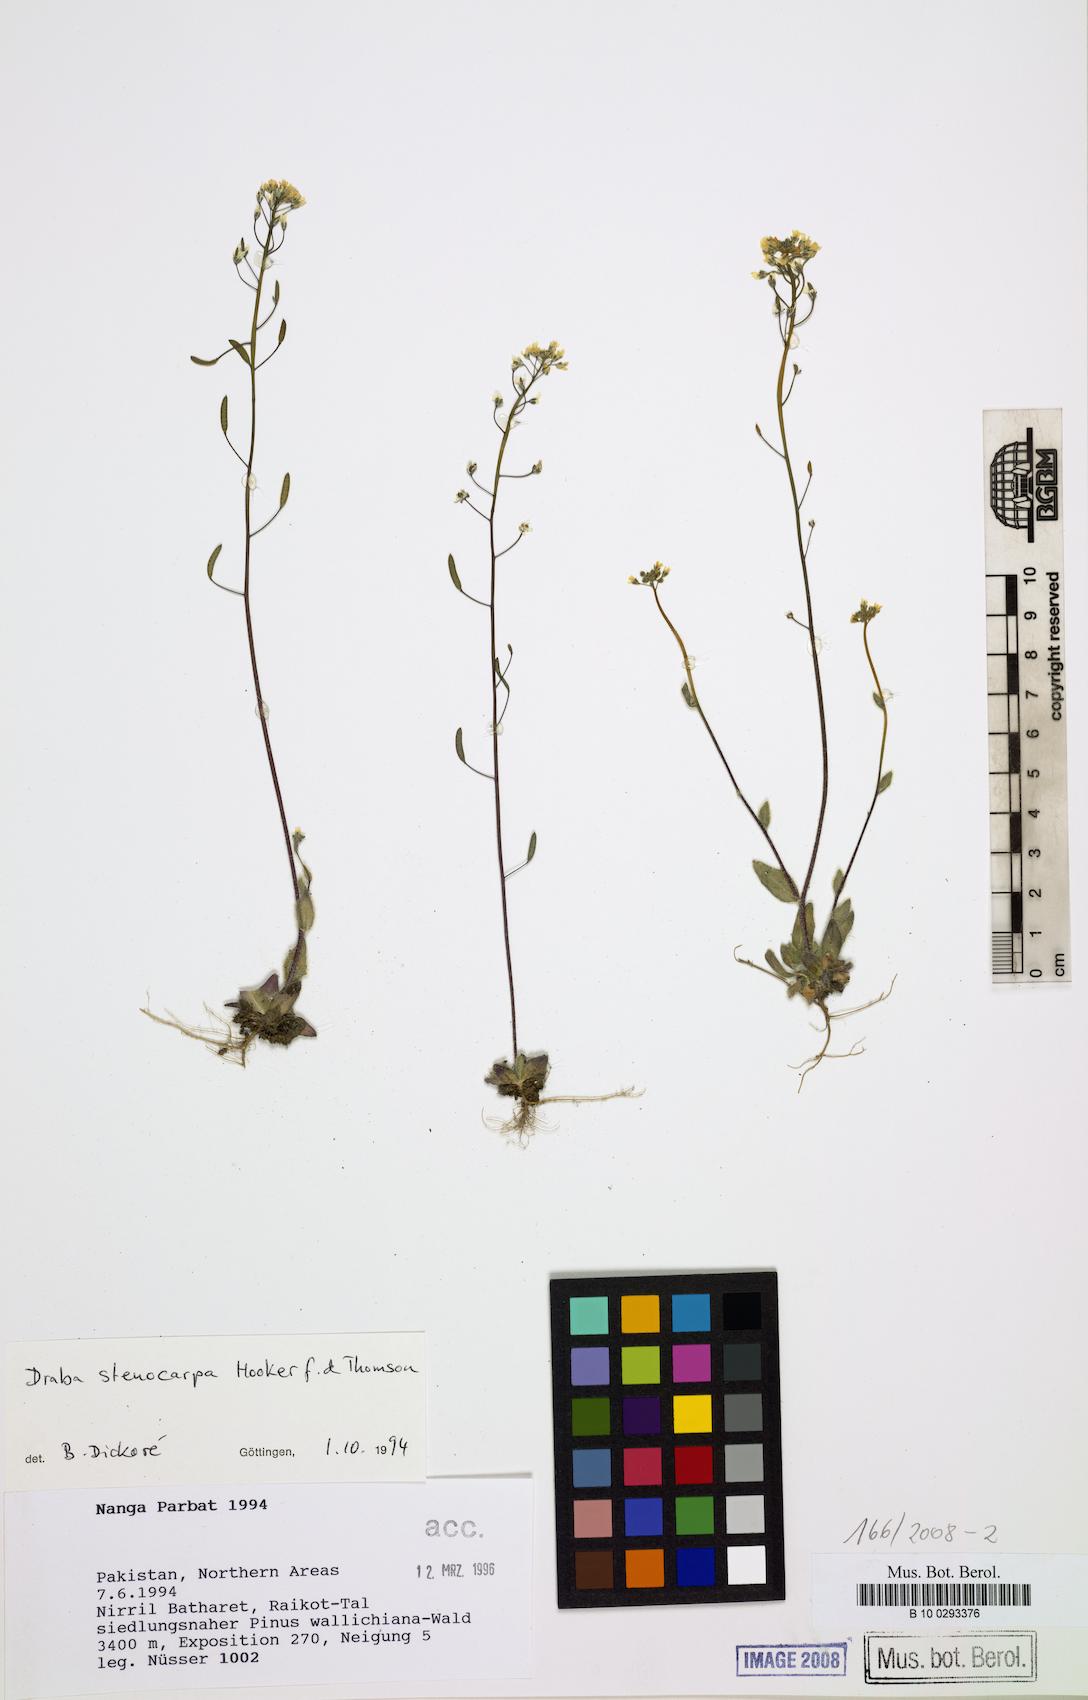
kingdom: Plantae
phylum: Tracheophyta
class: Magnoliopsida
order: Brassicales
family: Brassicaceae
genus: Draba
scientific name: Draba stenocarpa
